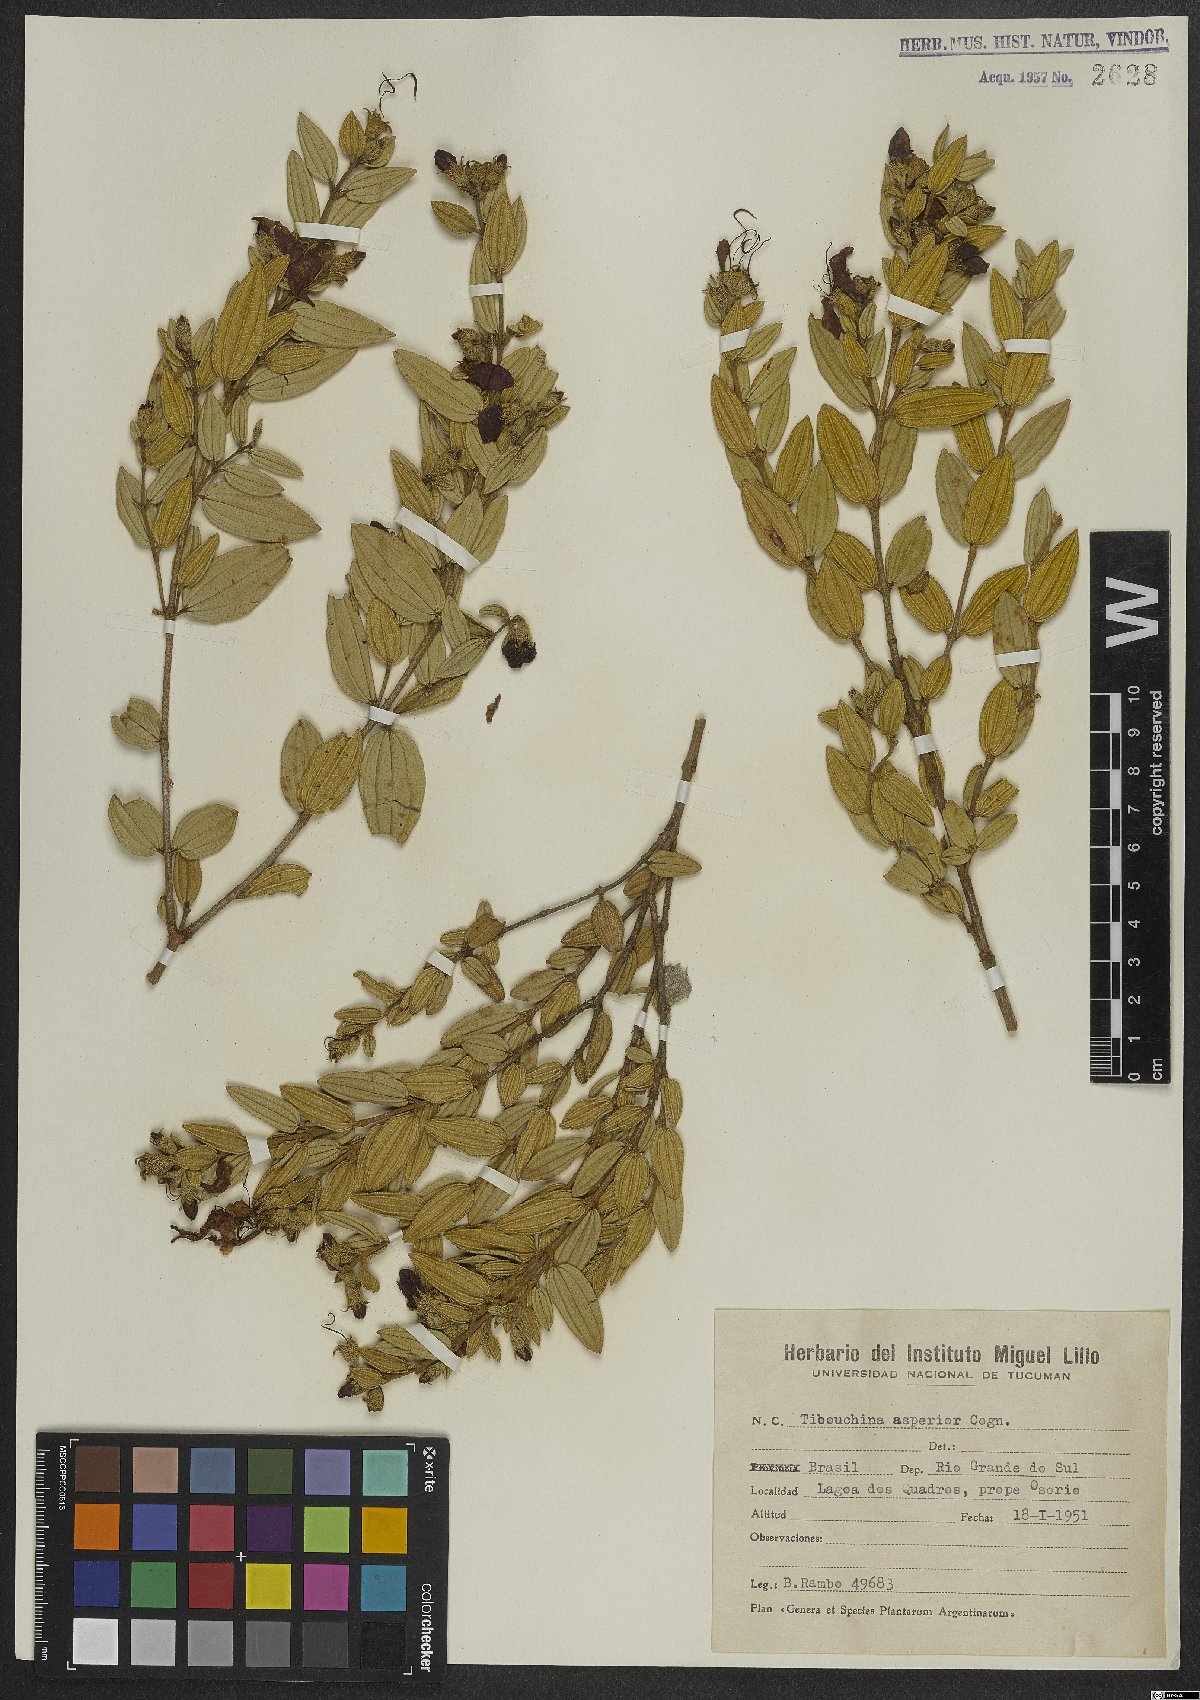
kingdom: Plantae
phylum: Tracheophyta
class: Magnoliopsida
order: Myrtales
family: Melastomataceae
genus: Pleroma
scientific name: Pleroma asperius
